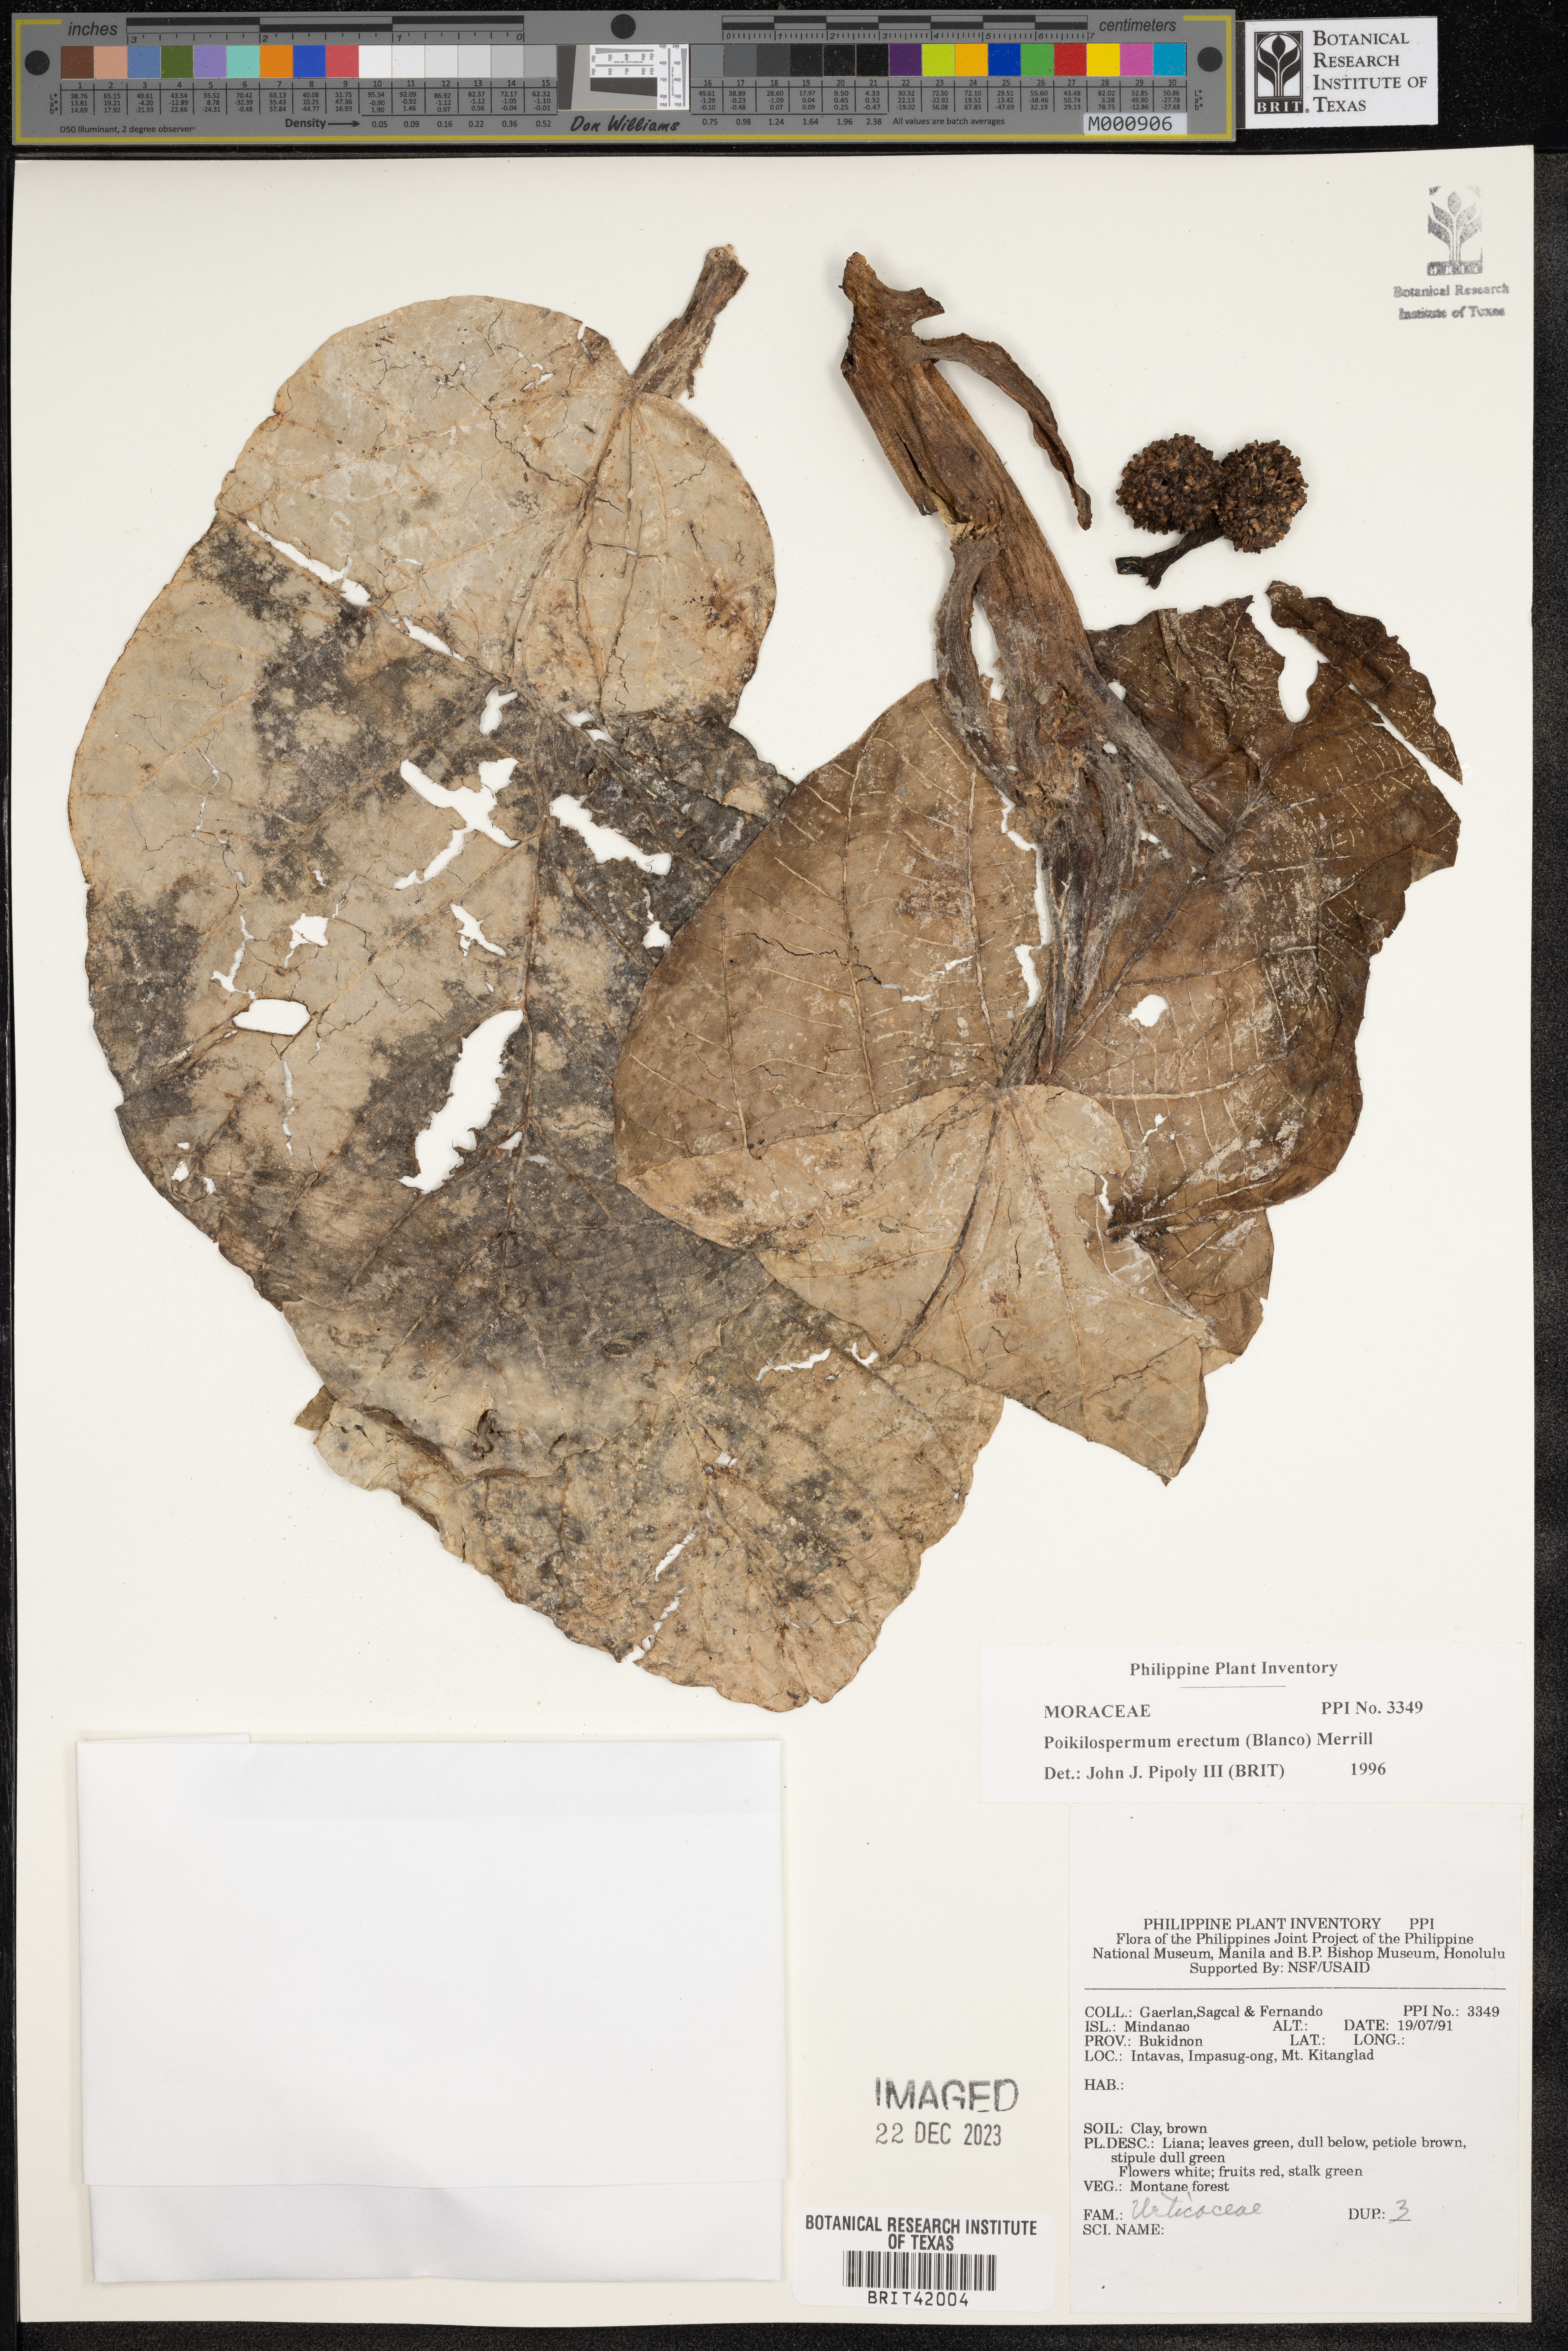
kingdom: Plantae
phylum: Tracheophyta
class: Magnoliopsida
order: Rosales
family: Urticaceae
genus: Poikilospermum
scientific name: Poikilospermum erectum
